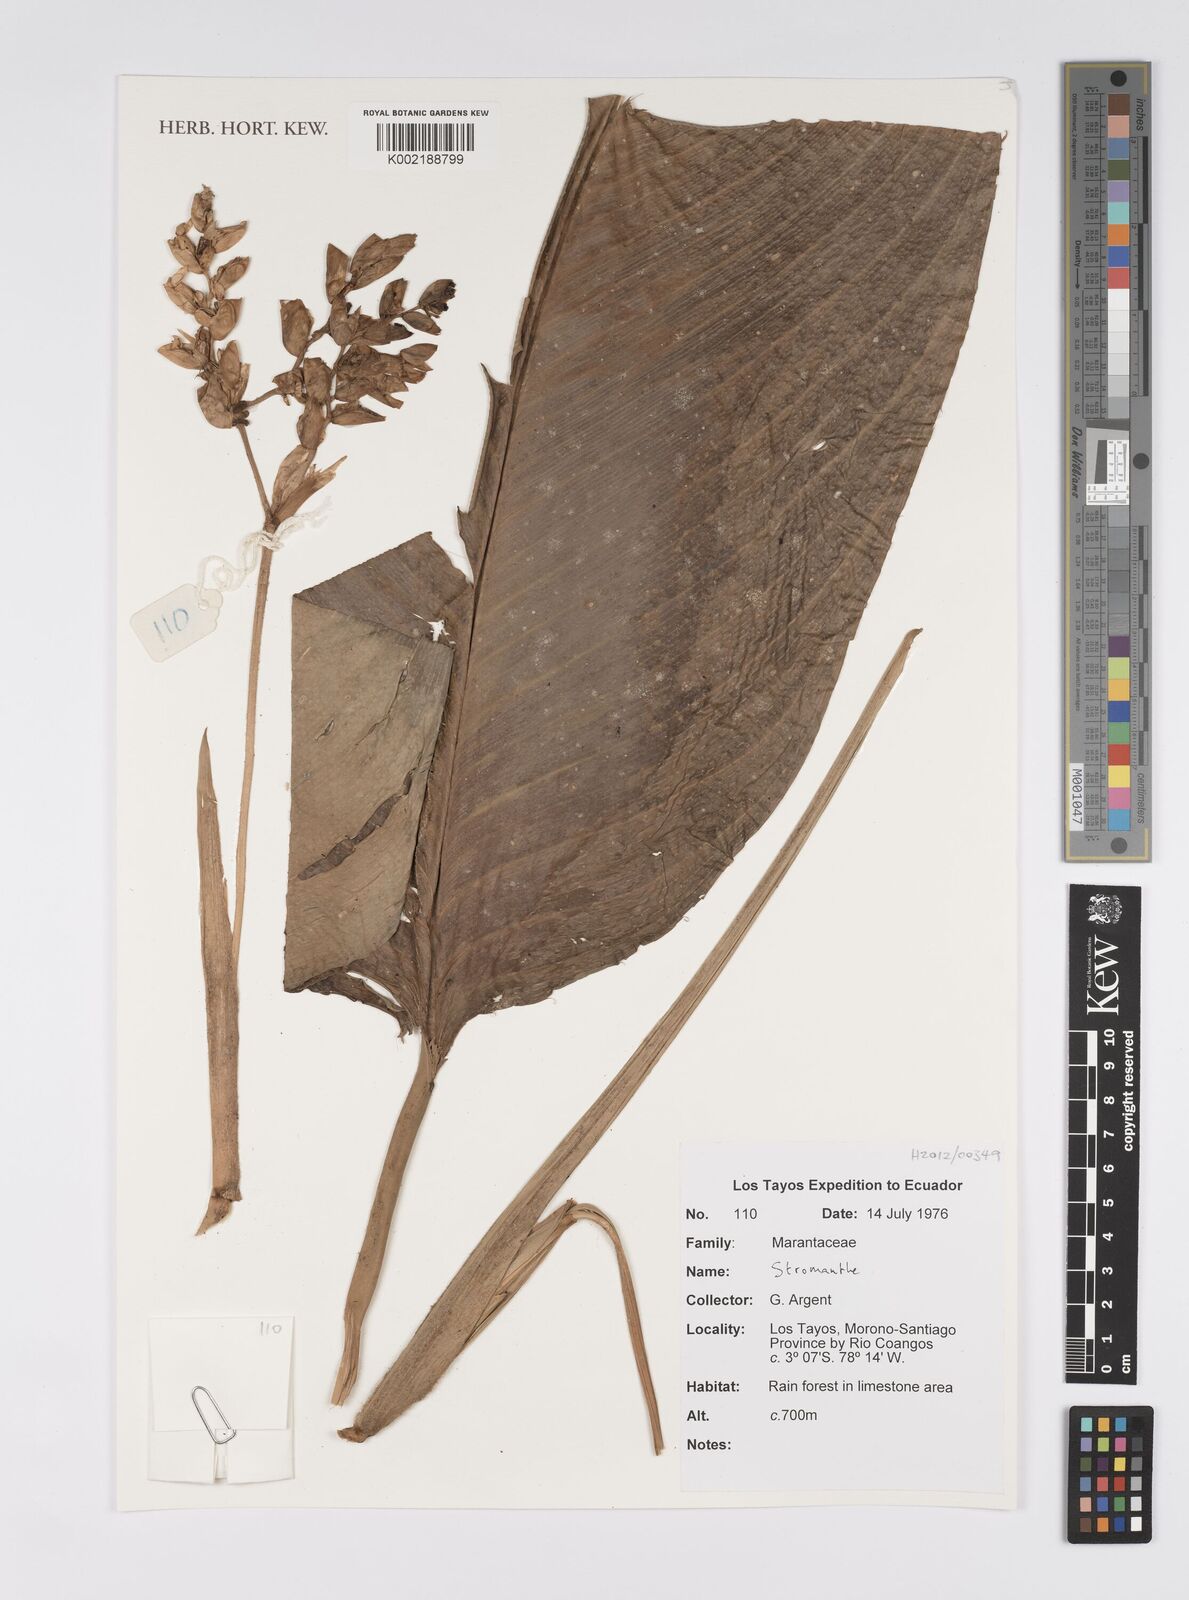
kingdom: Plantae
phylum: Tracheophyta
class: Liliopsida
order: Zingiberales
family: Marantaceae
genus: Stromanthe
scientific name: Stromanthe
